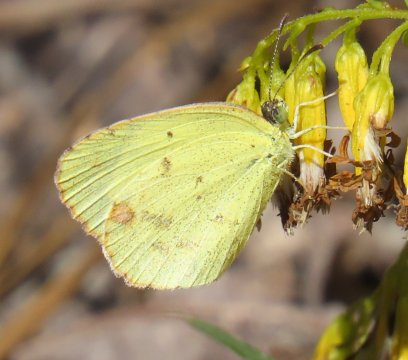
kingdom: Animalia
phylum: Arthropoda
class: Insecta
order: Lepidoptera
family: Pieridae
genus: Pyrisitia
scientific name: Pyrisitia lisa
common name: Little Yellow
